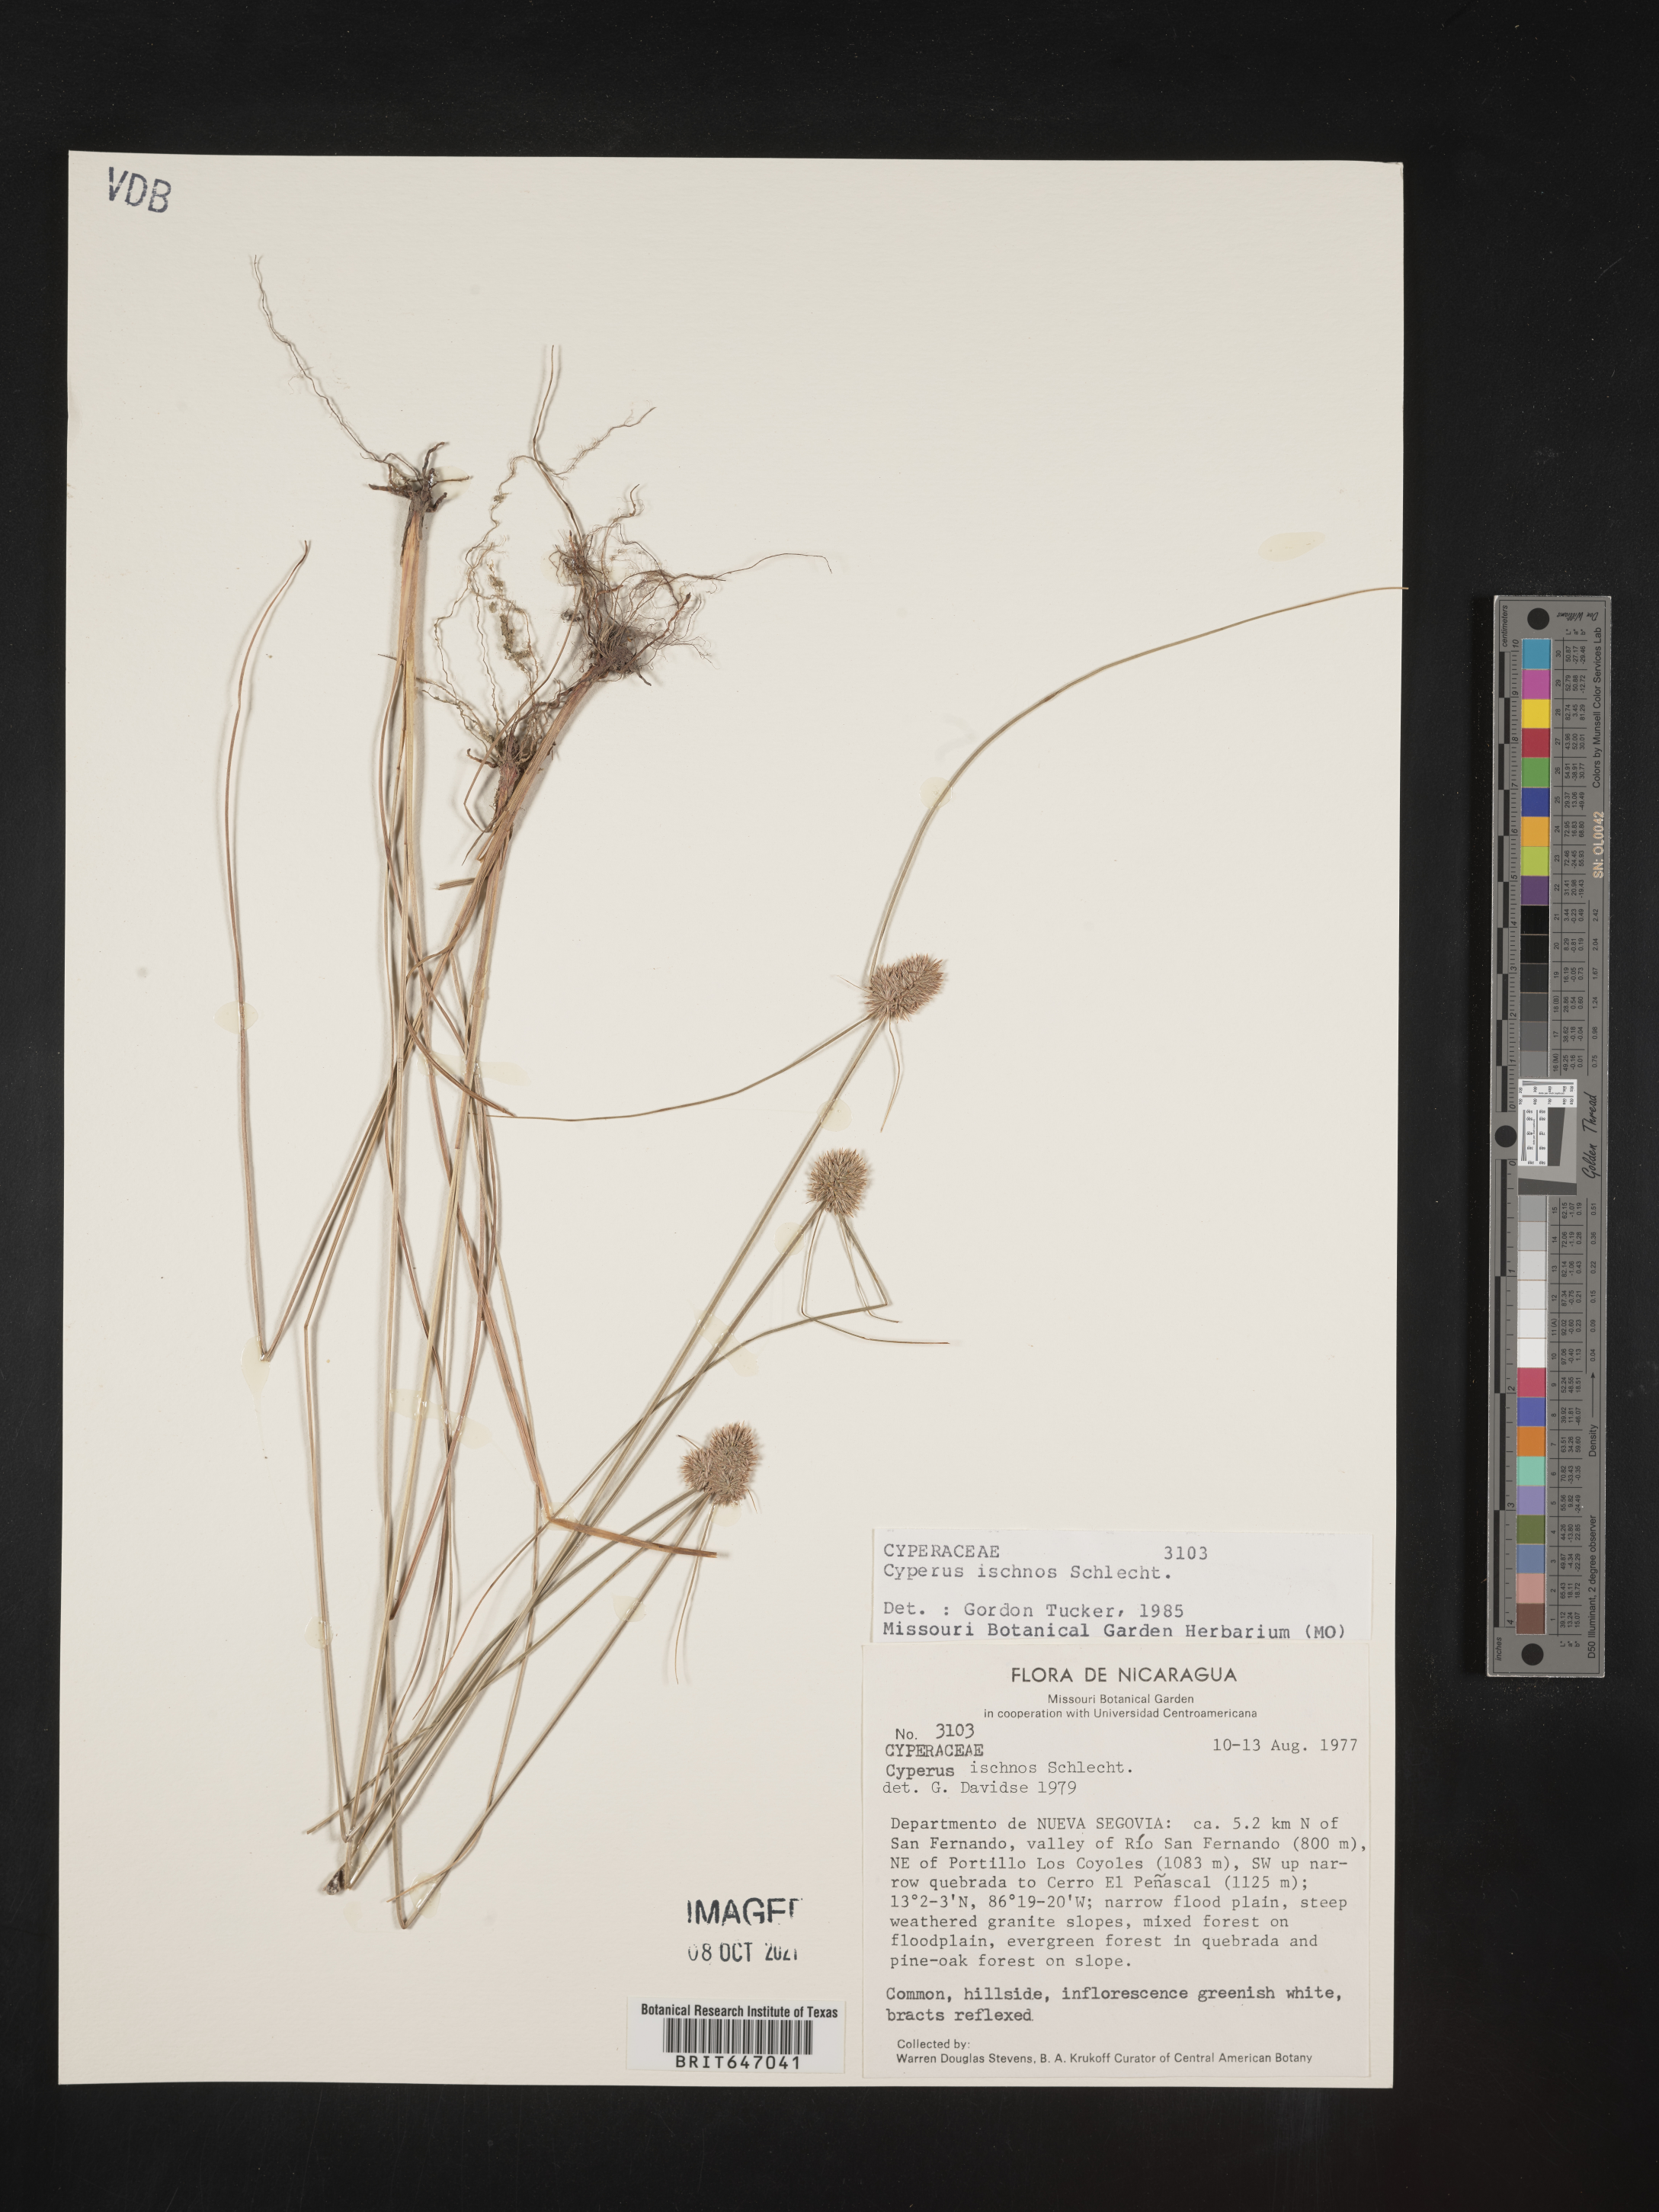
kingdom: Plantae
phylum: Tracheophyta
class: Liliopsida
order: Poales
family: Cyperaceae
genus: Cyperus
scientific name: Cyperus ischnos
